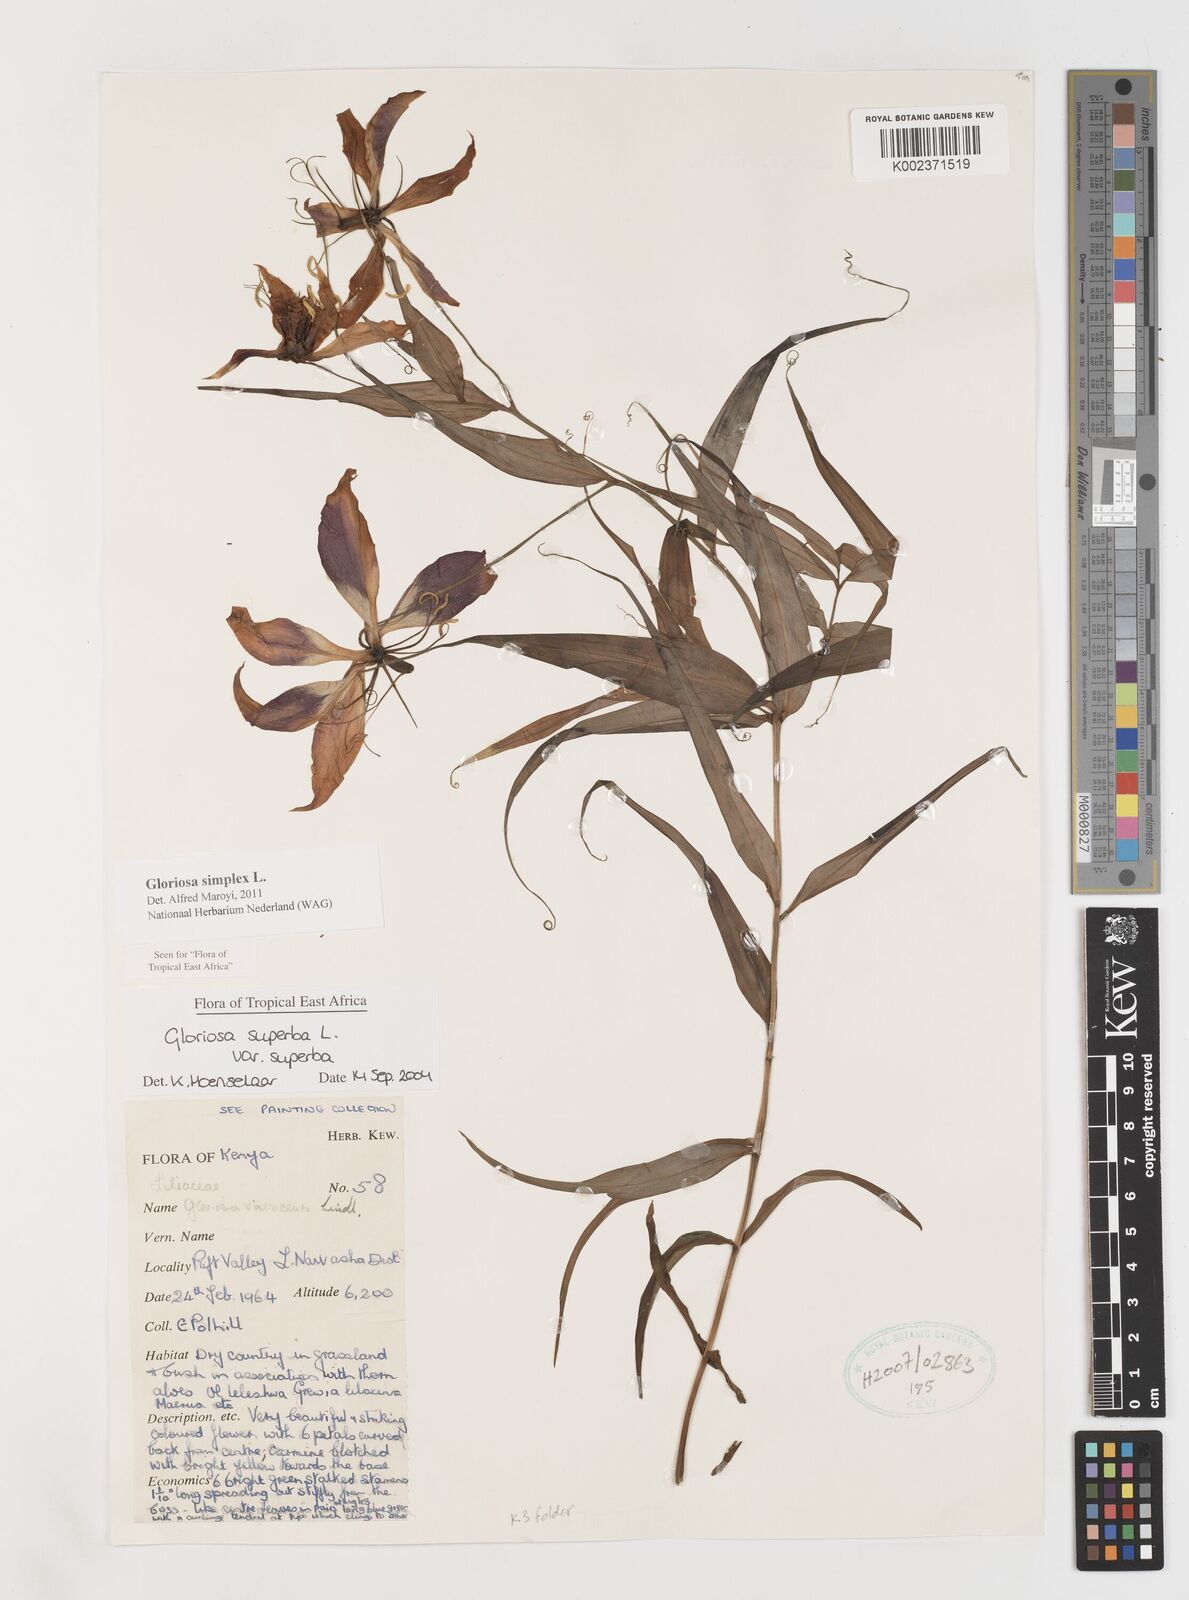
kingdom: Plantae
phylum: Tracheophyta
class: Liliopsida
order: Liliales
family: Colchicaceae
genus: Gloriosa
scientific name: Gloriosa simplex
